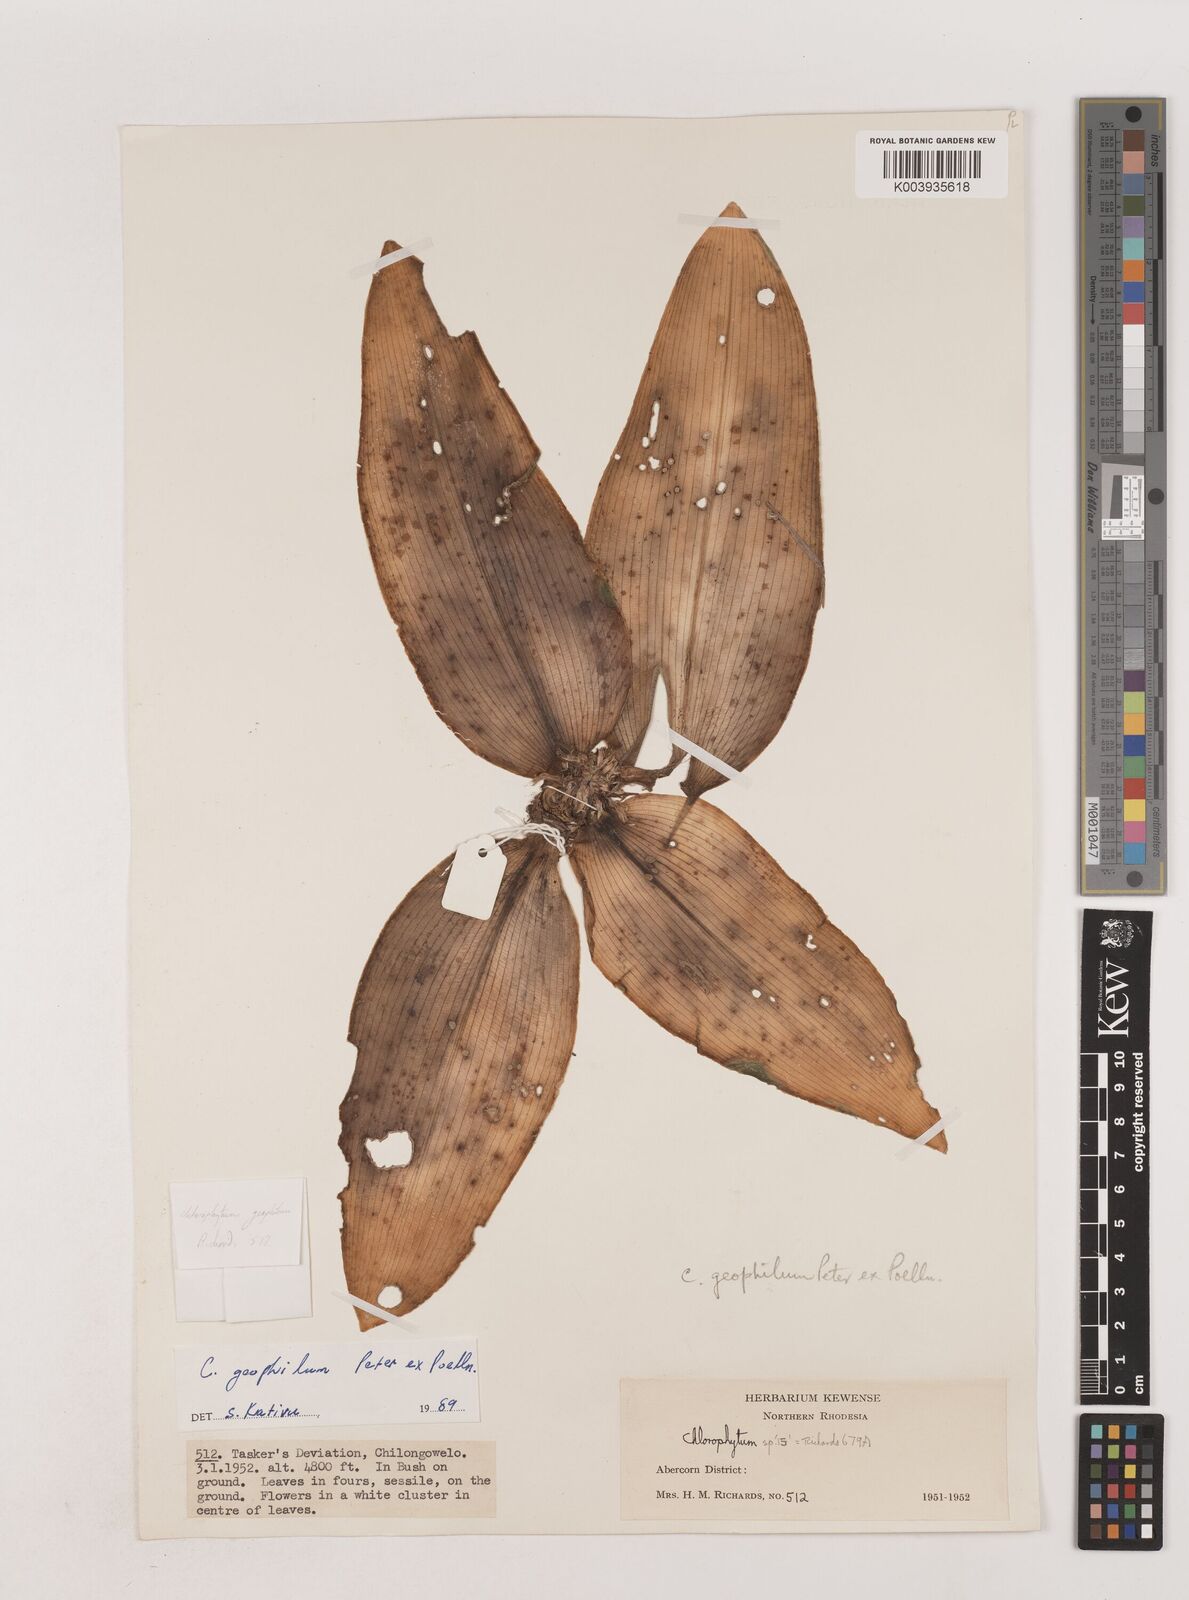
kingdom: Plantae
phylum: Tracheophyta
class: Liliopsida
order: Asparagales
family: Asparagaceae
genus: Chlorophytum
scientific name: Chlorophytum geophilum
